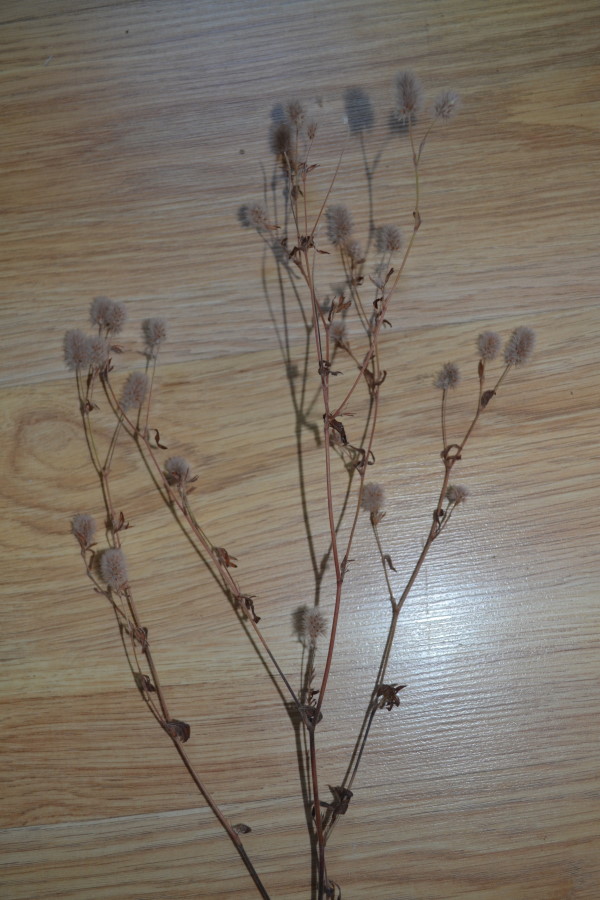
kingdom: Plantae
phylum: Tracheophyta
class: Magnoliopsida
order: Fabales
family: Fabaceae
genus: Trifolium
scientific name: Trifolium arvense
